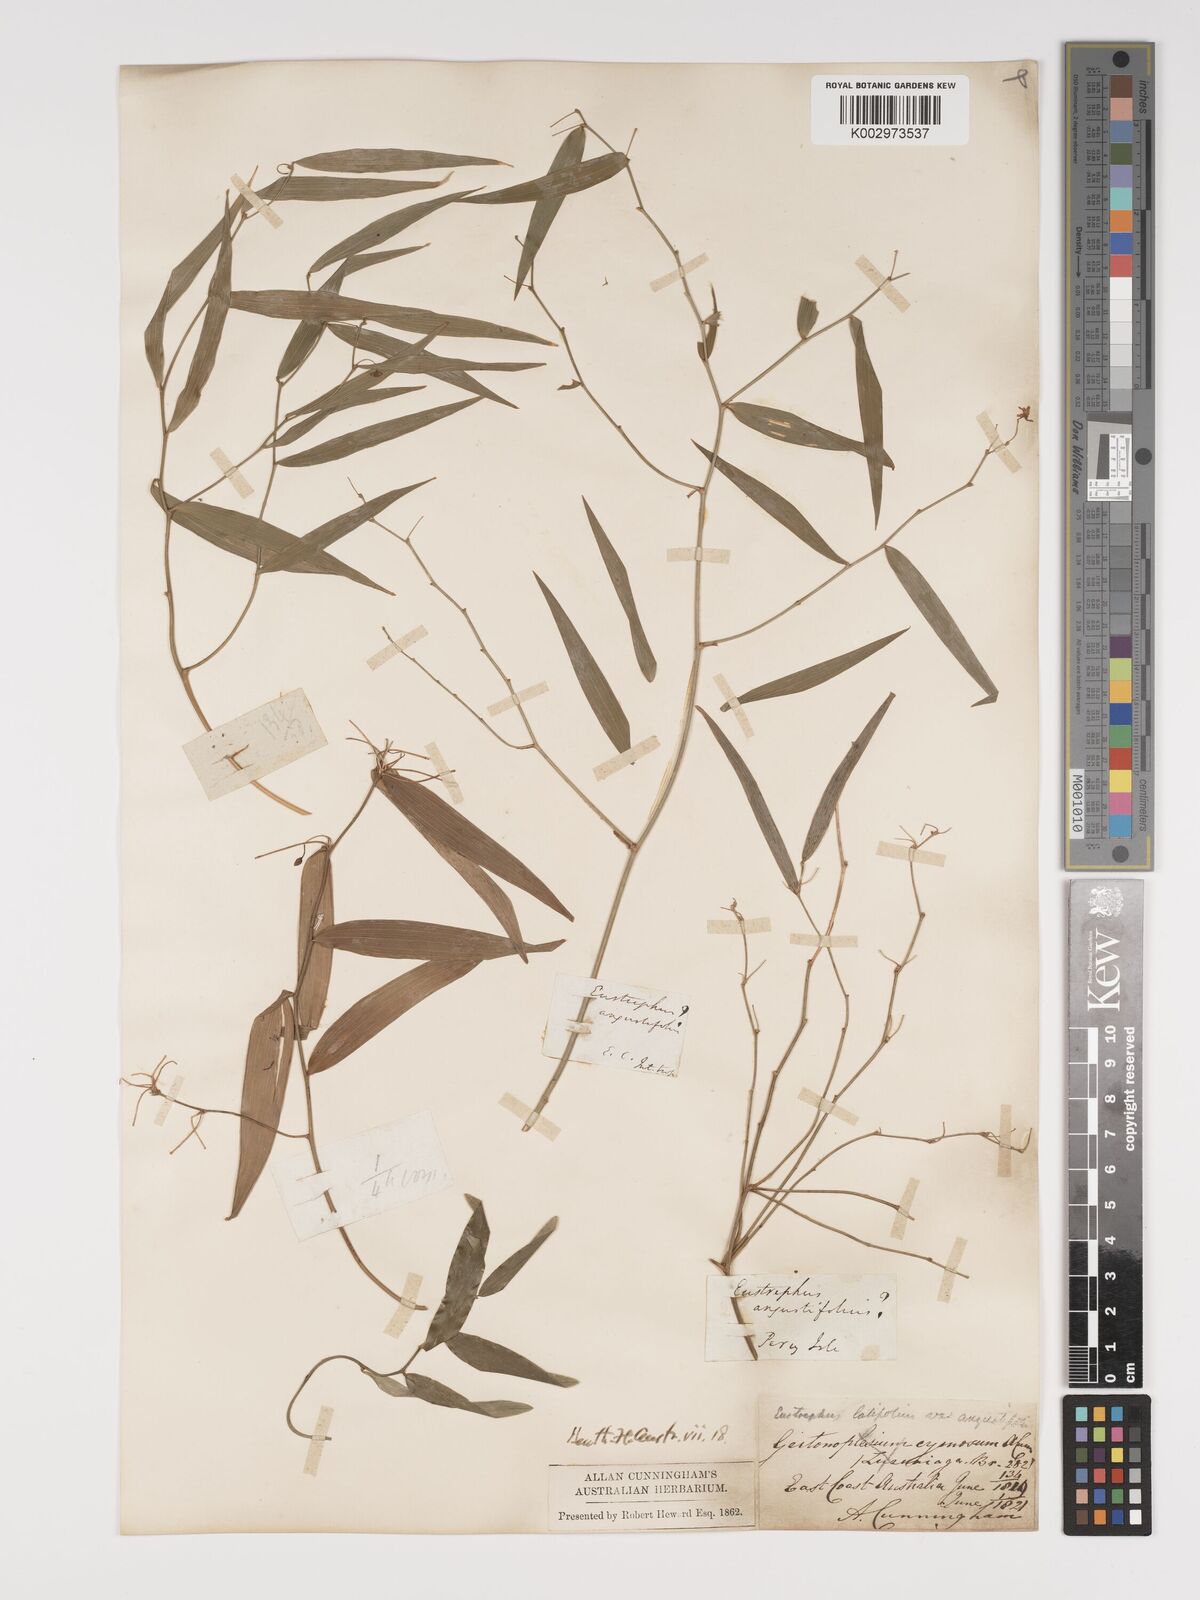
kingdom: Plantae
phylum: Tracheophyta
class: Liliopsida
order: Asparagales
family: Asparagaceae
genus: Eustrephus
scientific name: Eustrephus latifolius
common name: Orangevine
